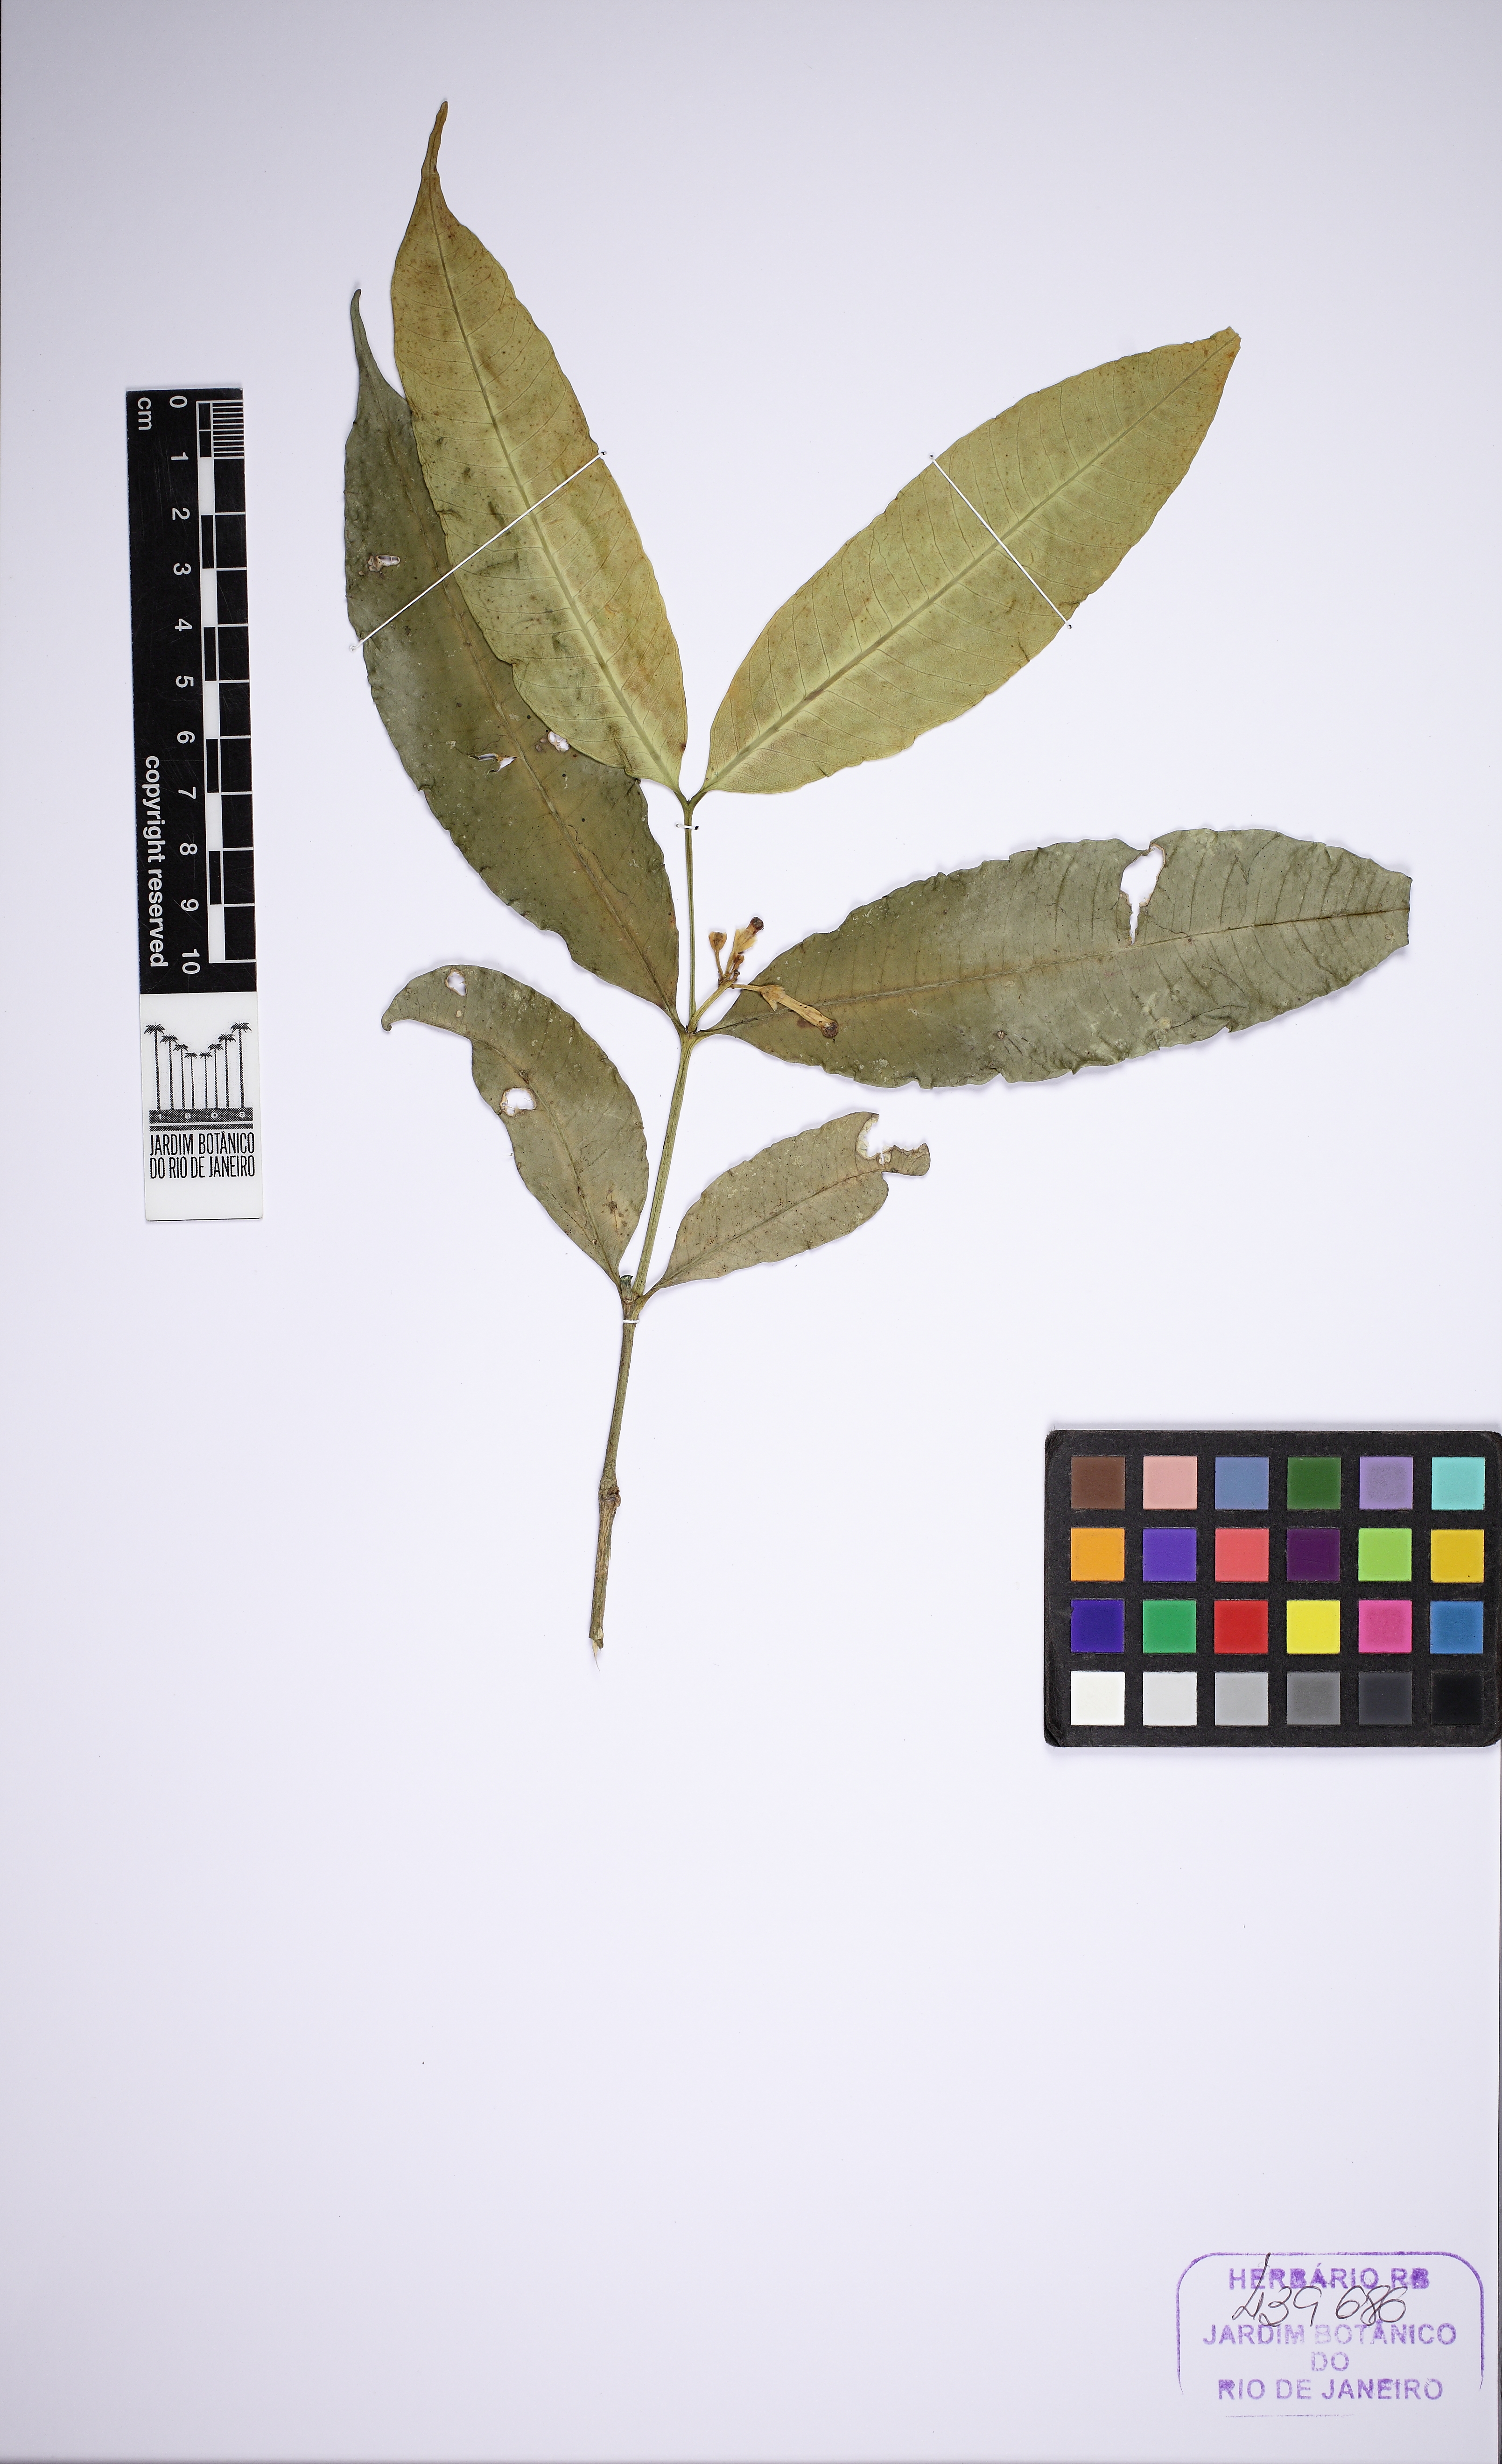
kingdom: Plantae
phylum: Tracheophyta
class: Magnoliopsida
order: Gentianales
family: Apocynaceae
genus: Tabernaemontana
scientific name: Tabernaemontana
